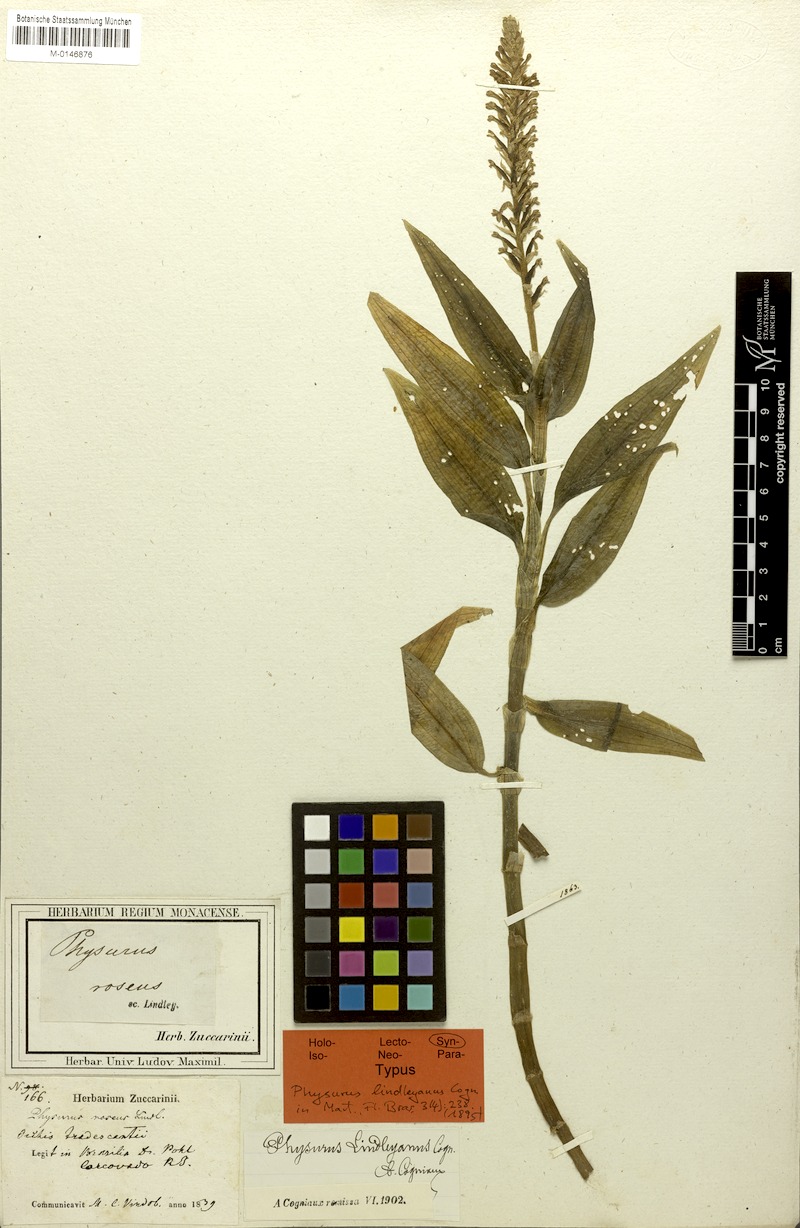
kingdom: Plantae
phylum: Tracheophyta
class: Liliopsida
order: Asparagales
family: Orchidaceae
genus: Aspidogyne
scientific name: Aspidogyne lindleyana
